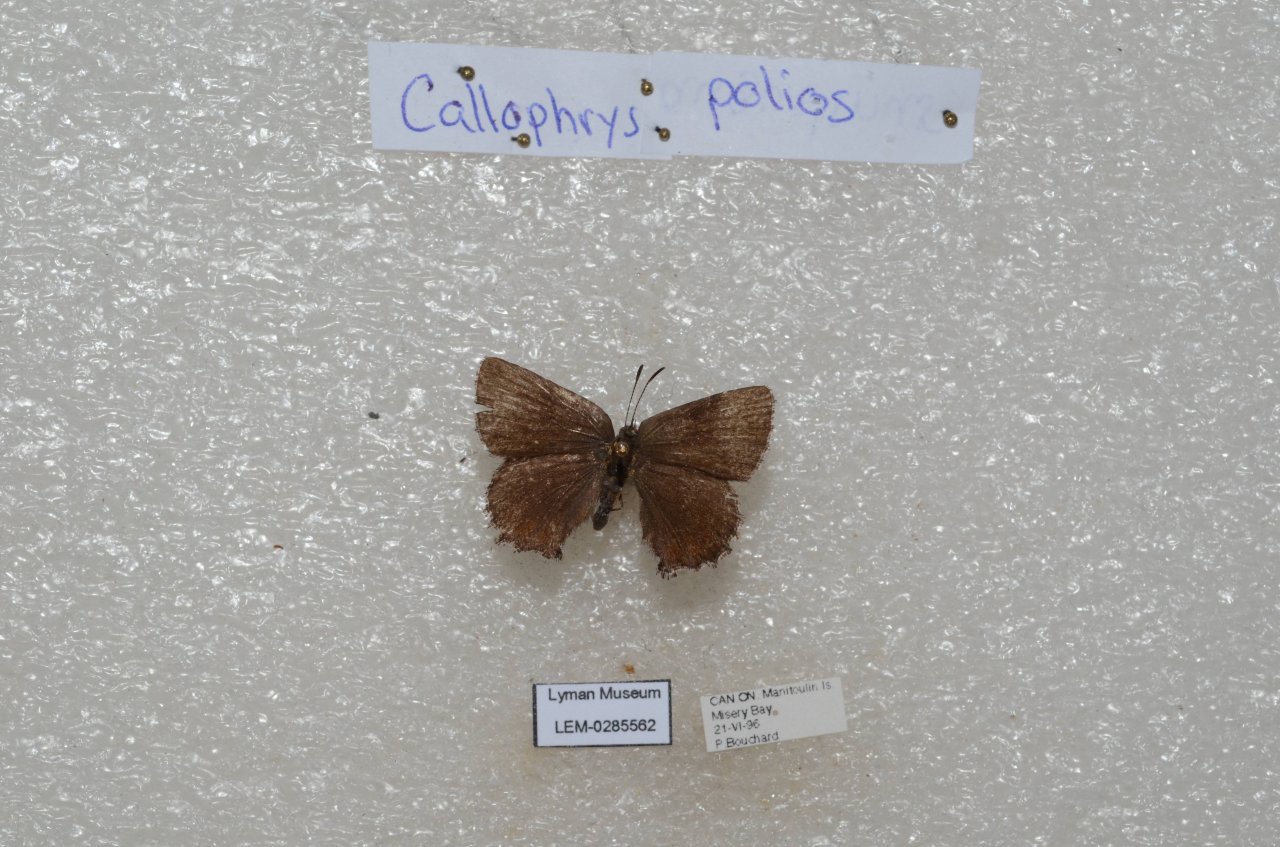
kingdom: Animalia
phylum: Arthropoda
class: Insecta
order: Lepidoptera
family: Lycaenidae
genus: Incisalia
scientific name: Incisalia irioides
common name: Brown Elfin
